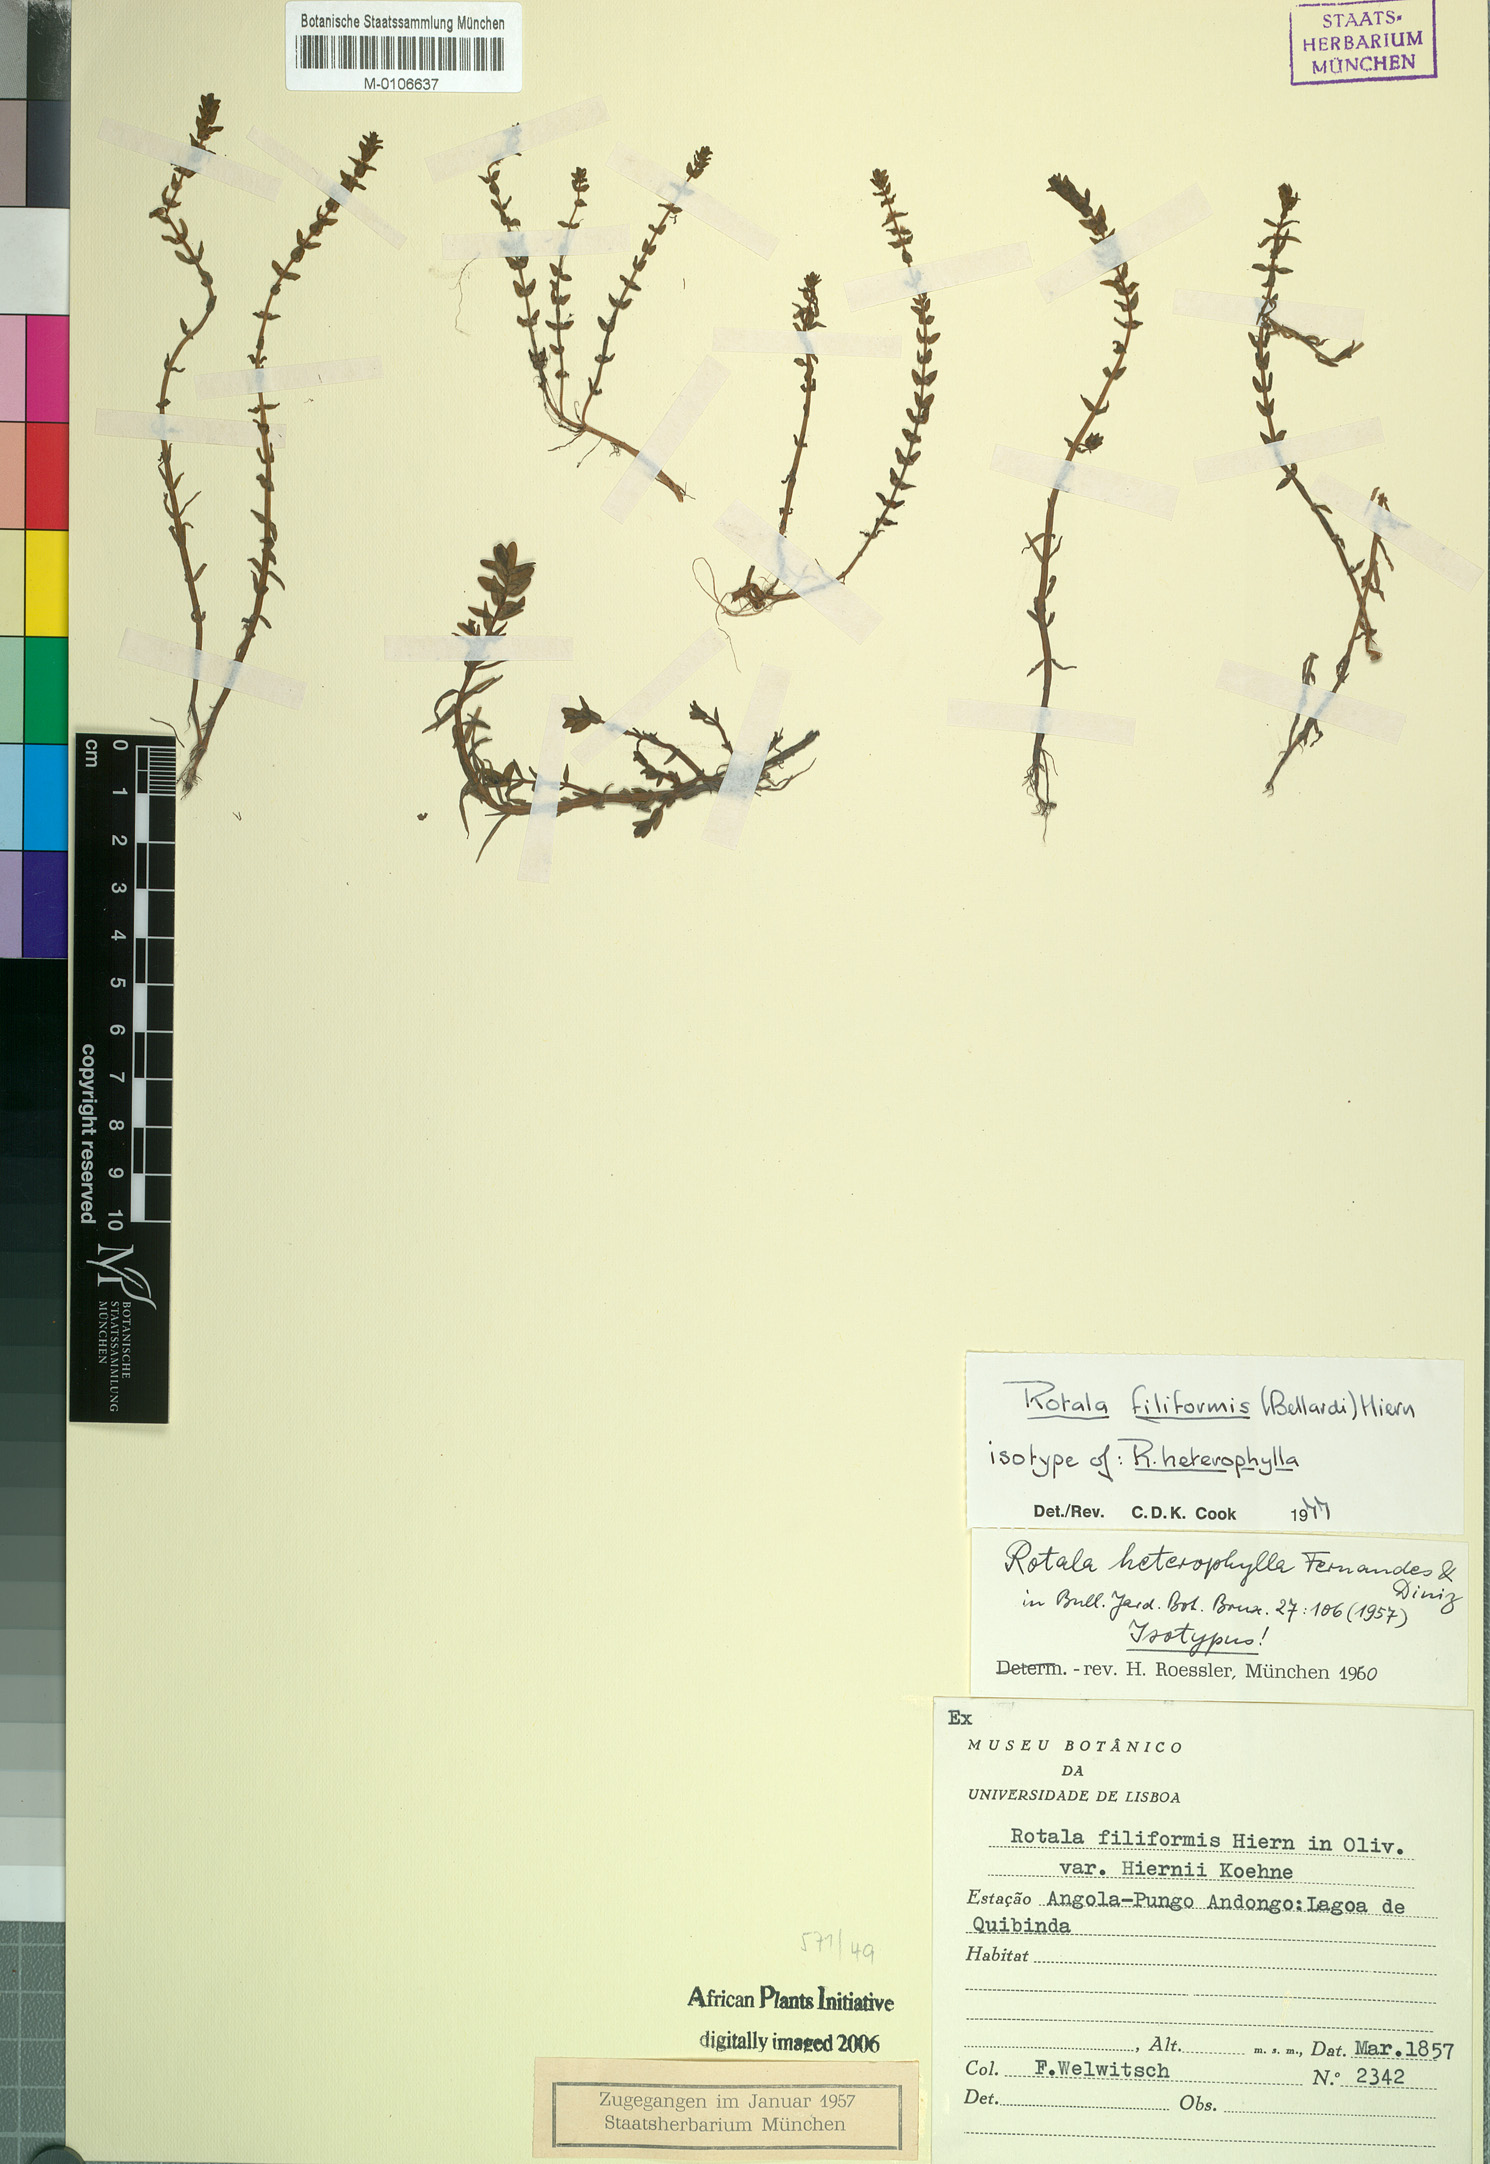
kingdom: Plantae
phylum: Tracheophyta
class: Magnoliopsida
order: Myrtales
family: Lythraceae
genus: Rotala
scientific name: Rotala filiformis
